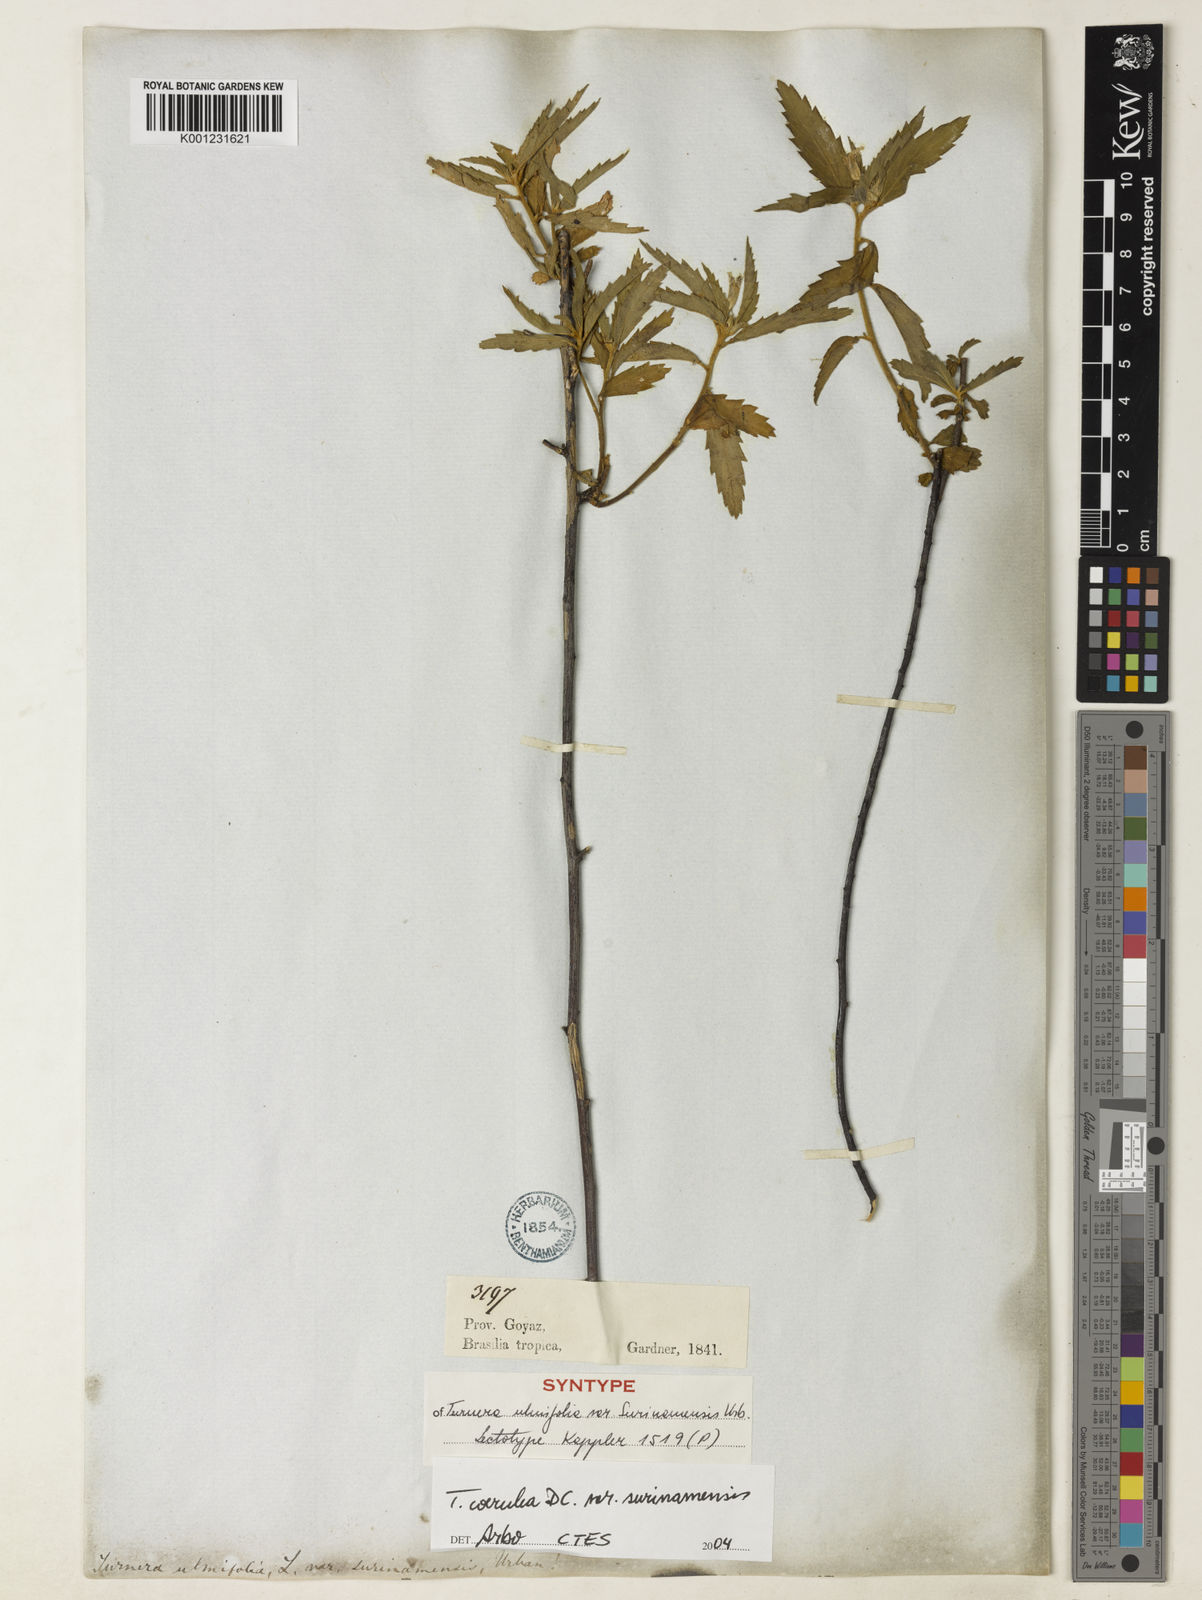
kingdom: Plantae
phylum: Tracheophyta
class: Magnoliopsida
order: Malpighiales
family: Turneraceae
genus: Turnera
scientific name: Turnera coerulea
